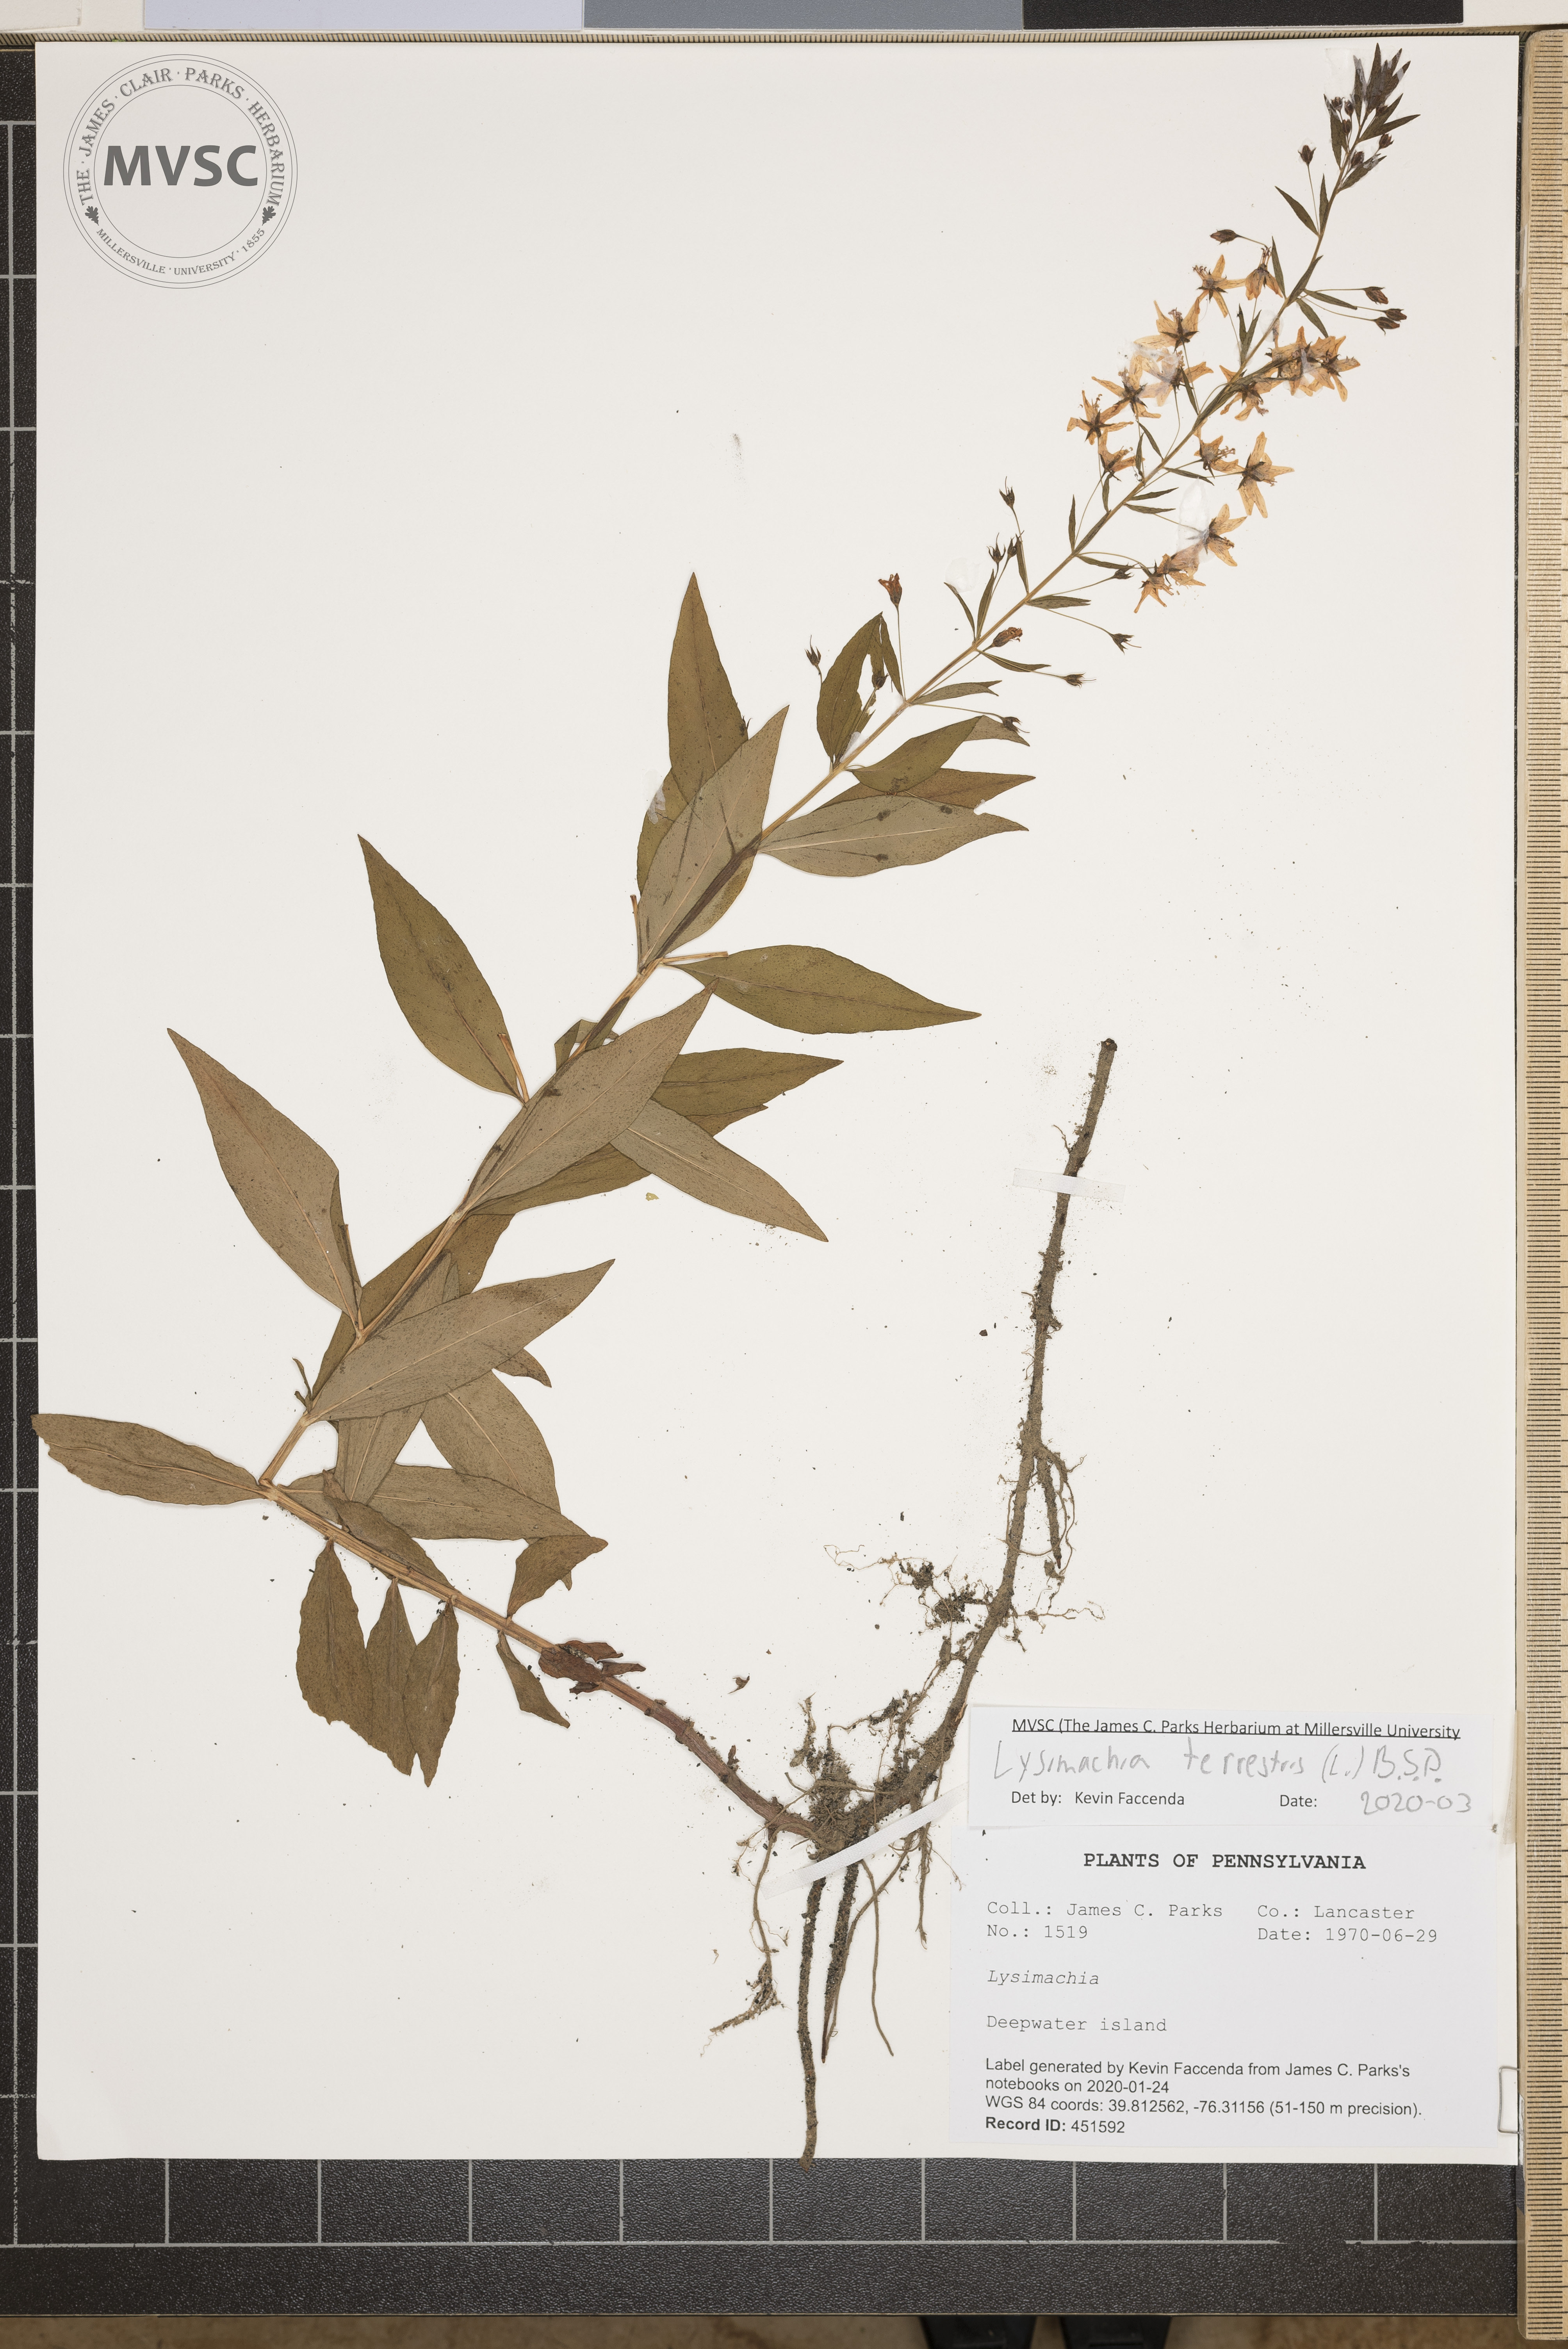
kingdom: Plantae
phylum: Tracheophyta
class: Magnoliopsida
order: Ericales
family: Primulaceae
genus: Lysimachia
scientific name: Lysimachia terrestris
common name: Lake loosestrife
